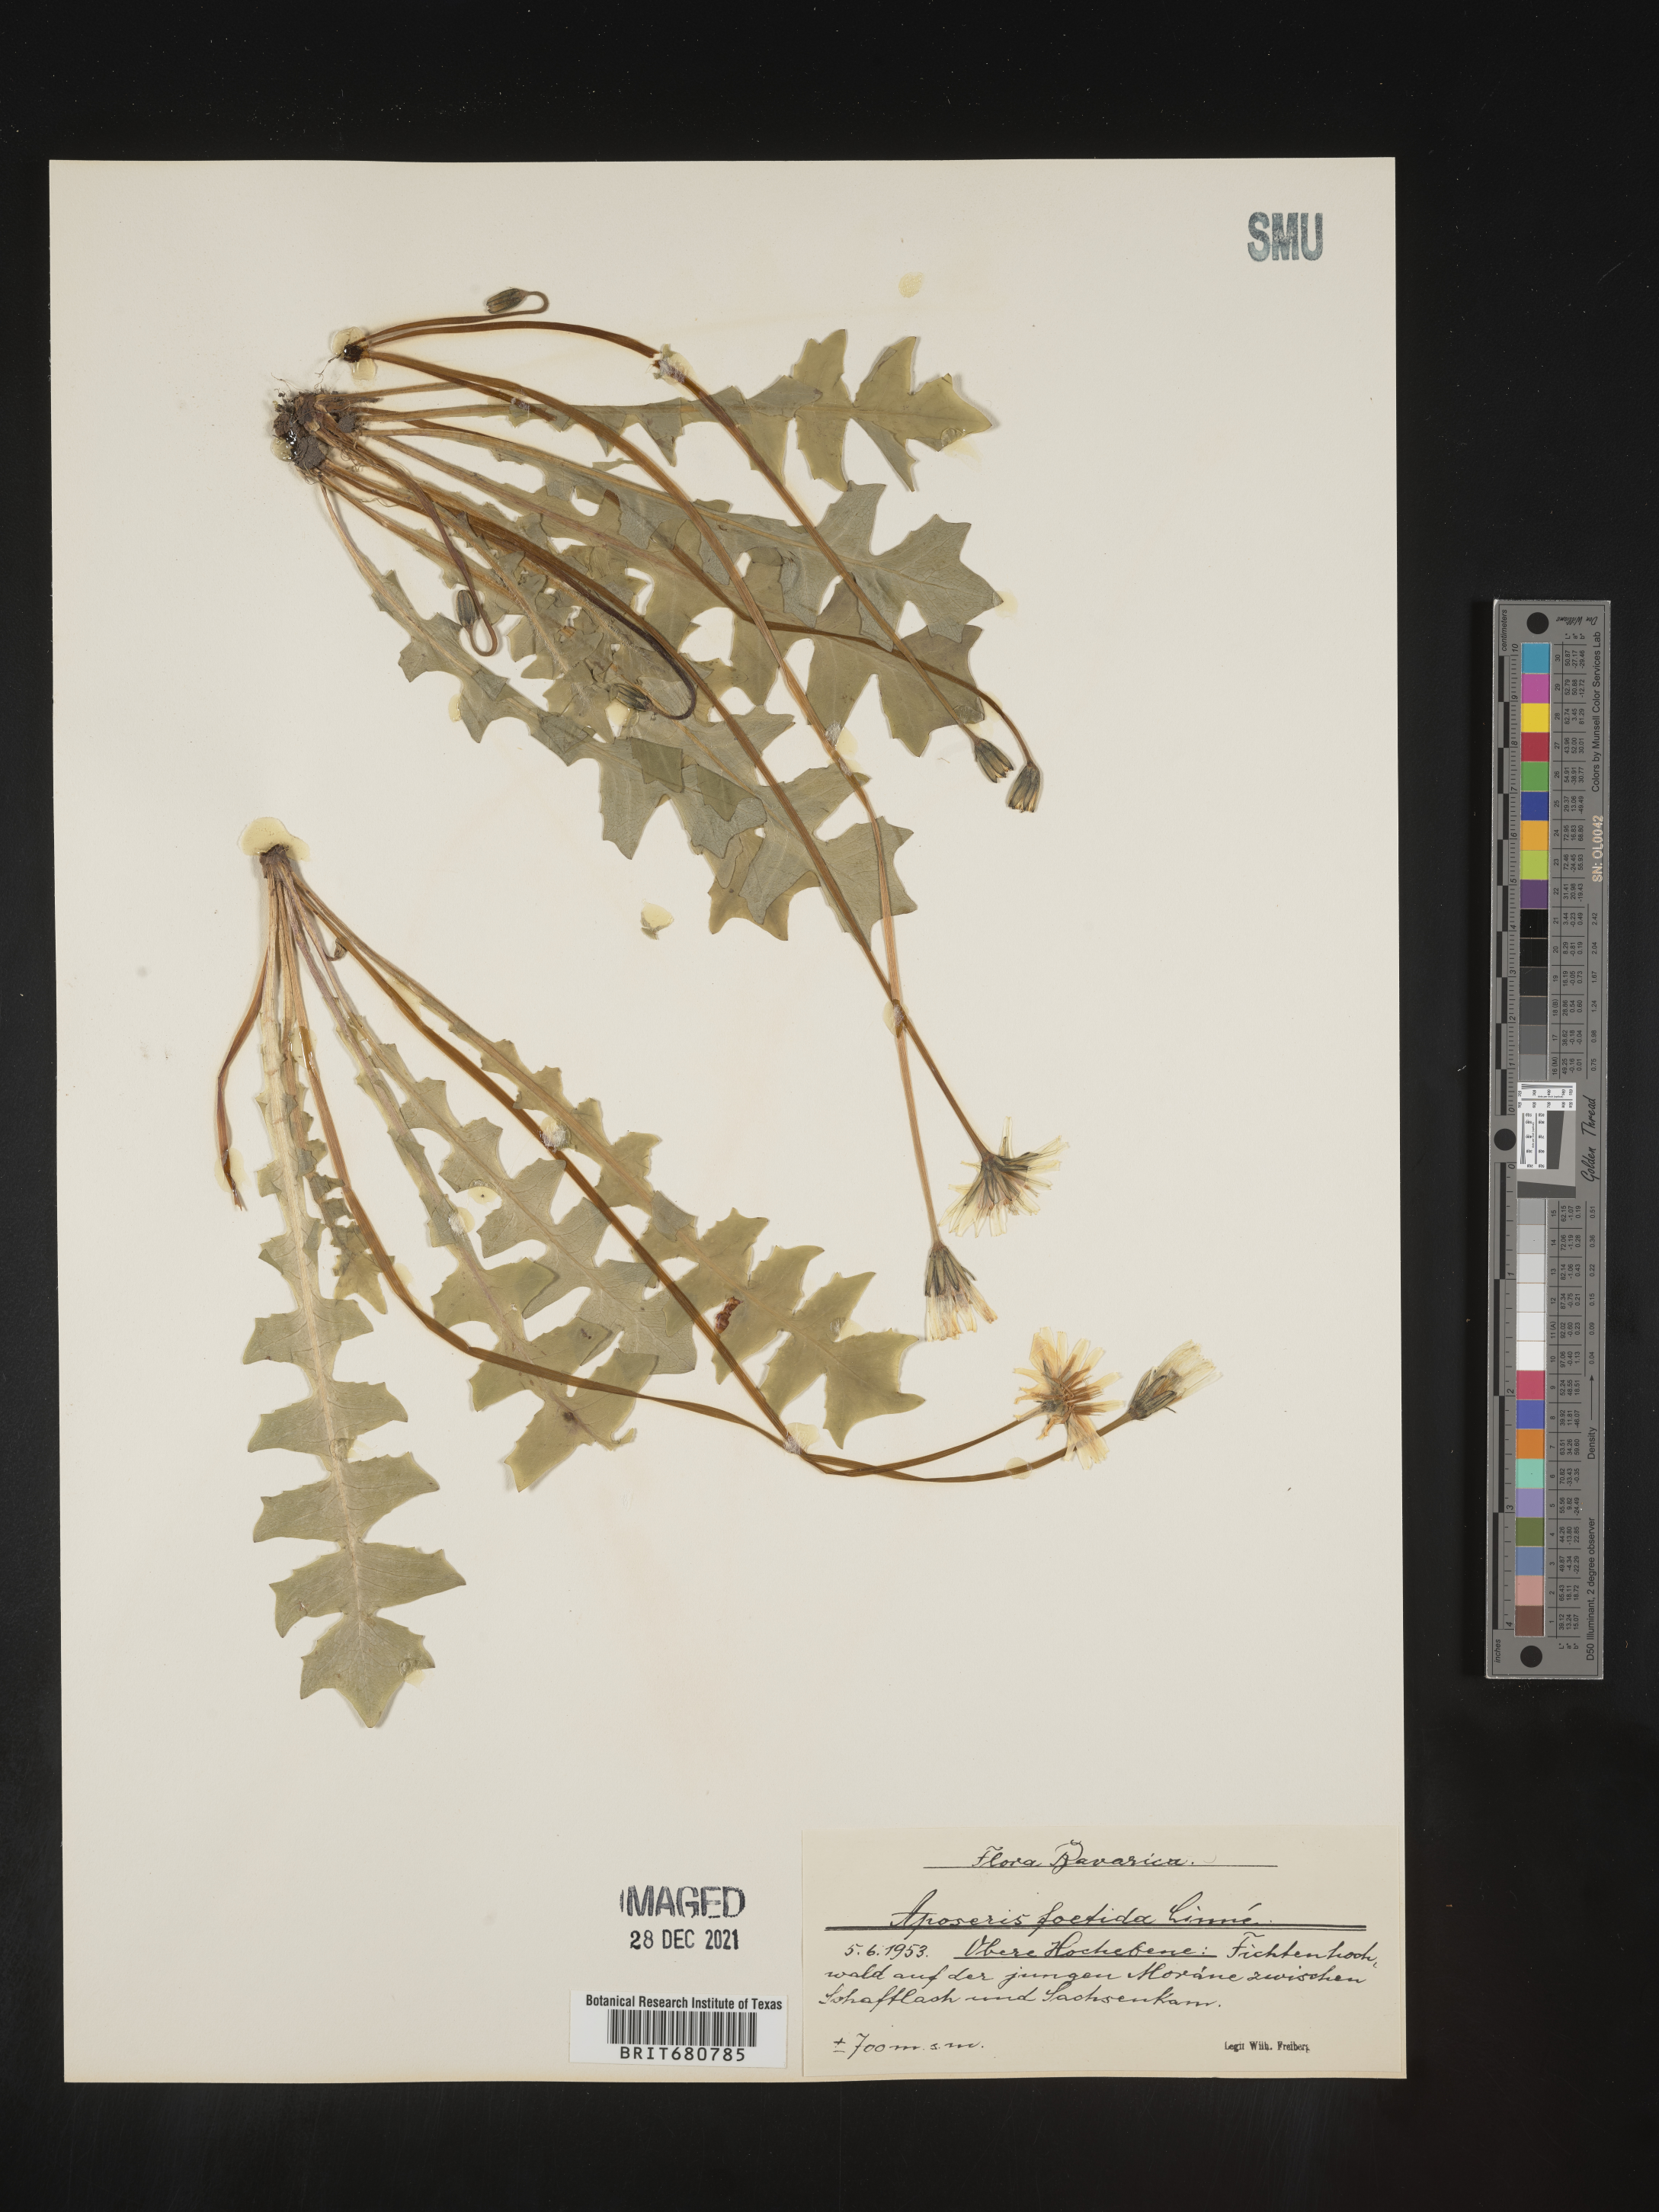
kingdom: Plantae
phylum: Tracheophyta
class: Magnoliopsida
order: Asterales
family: Asteraceae
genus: Aposeris
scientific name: Aposeris
